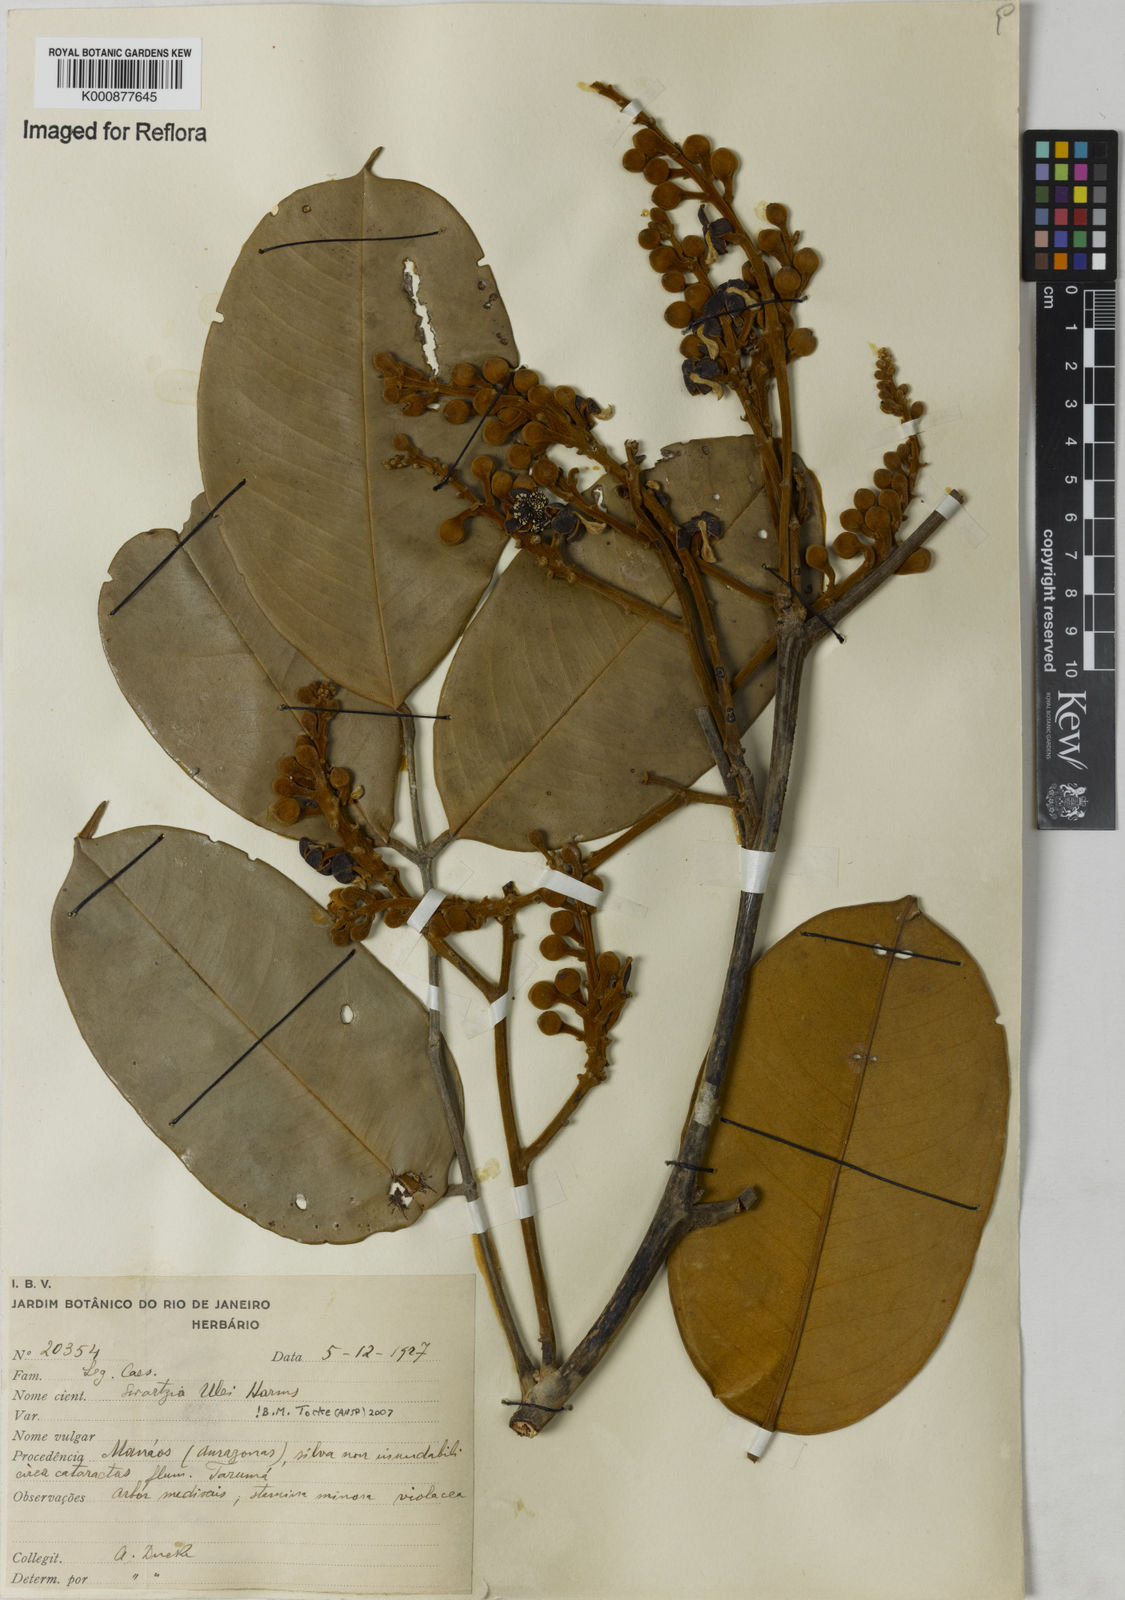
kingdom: Plantae
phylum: Tracheophyta
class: Magnoliopsida
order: Fabales
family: Fabaceae
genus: Swartzia
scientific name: Swartzia ulei
